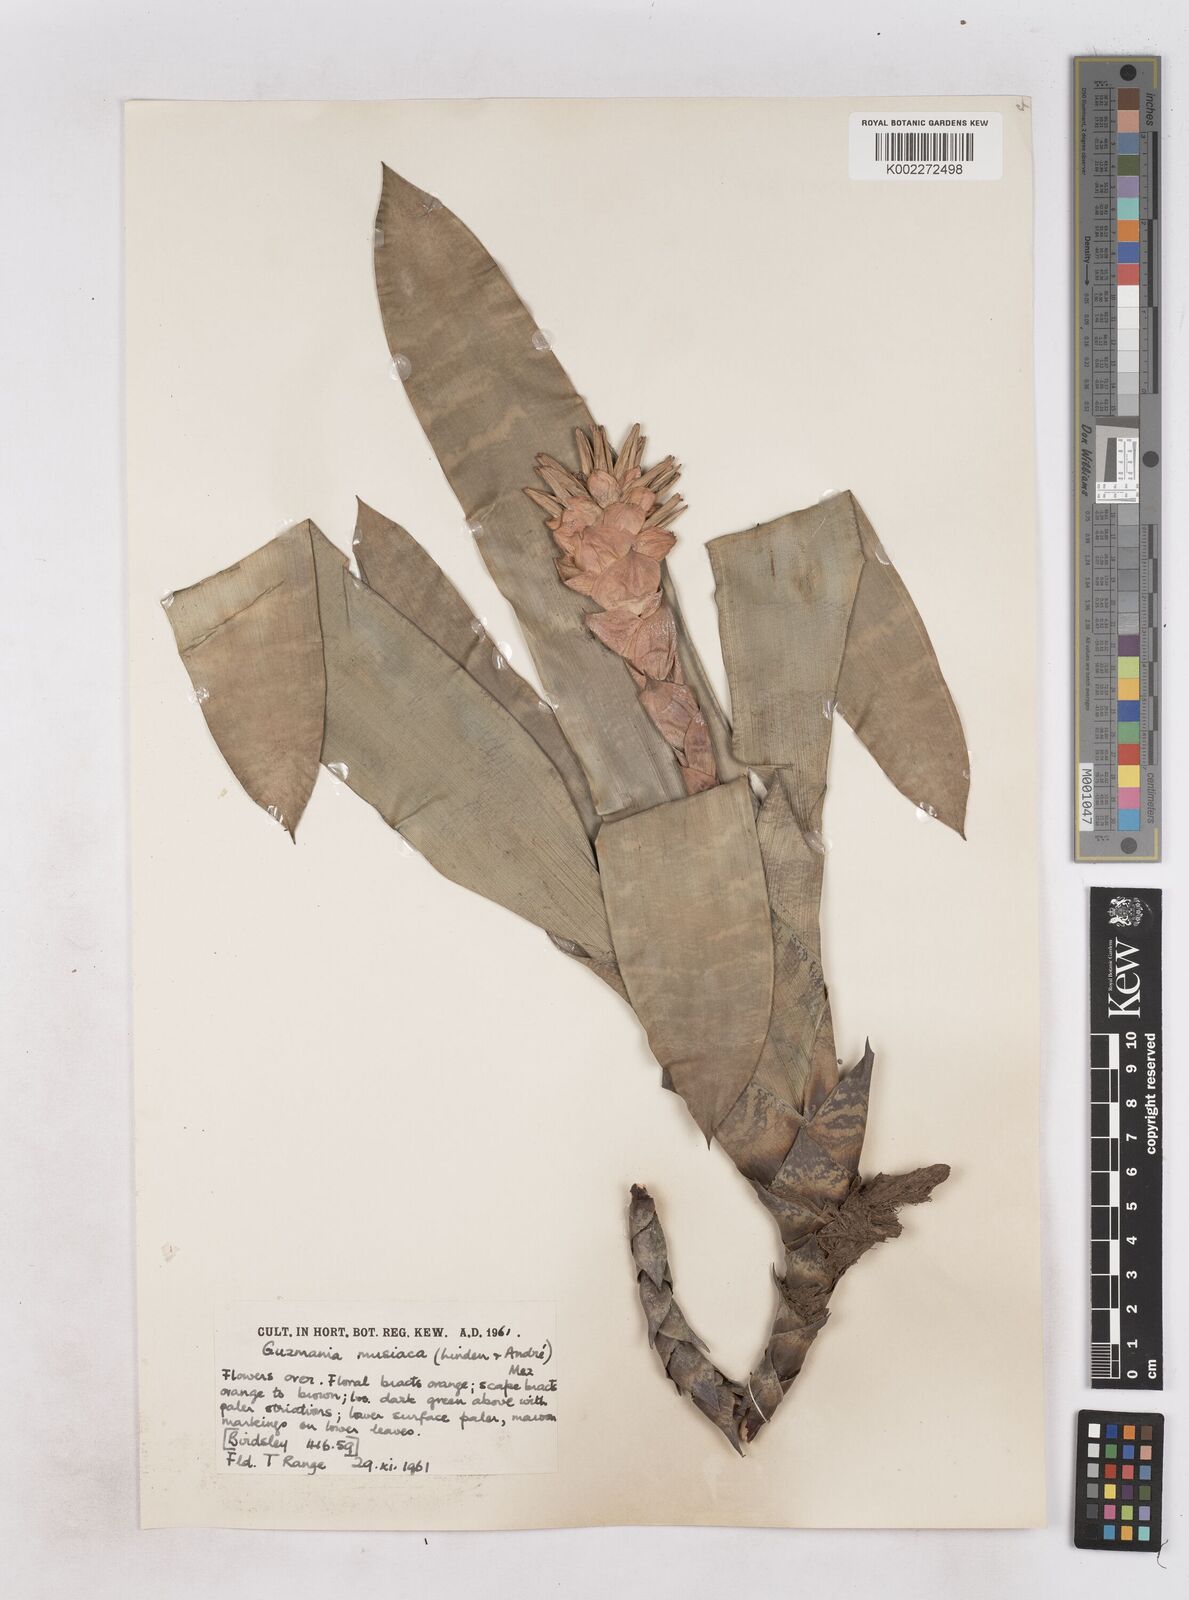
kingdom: Plantae
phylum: Tracheophyta
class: Liliopsida
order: Poales
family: Bromeliaceae
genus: Guzmania
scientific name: Guzmania musaica
